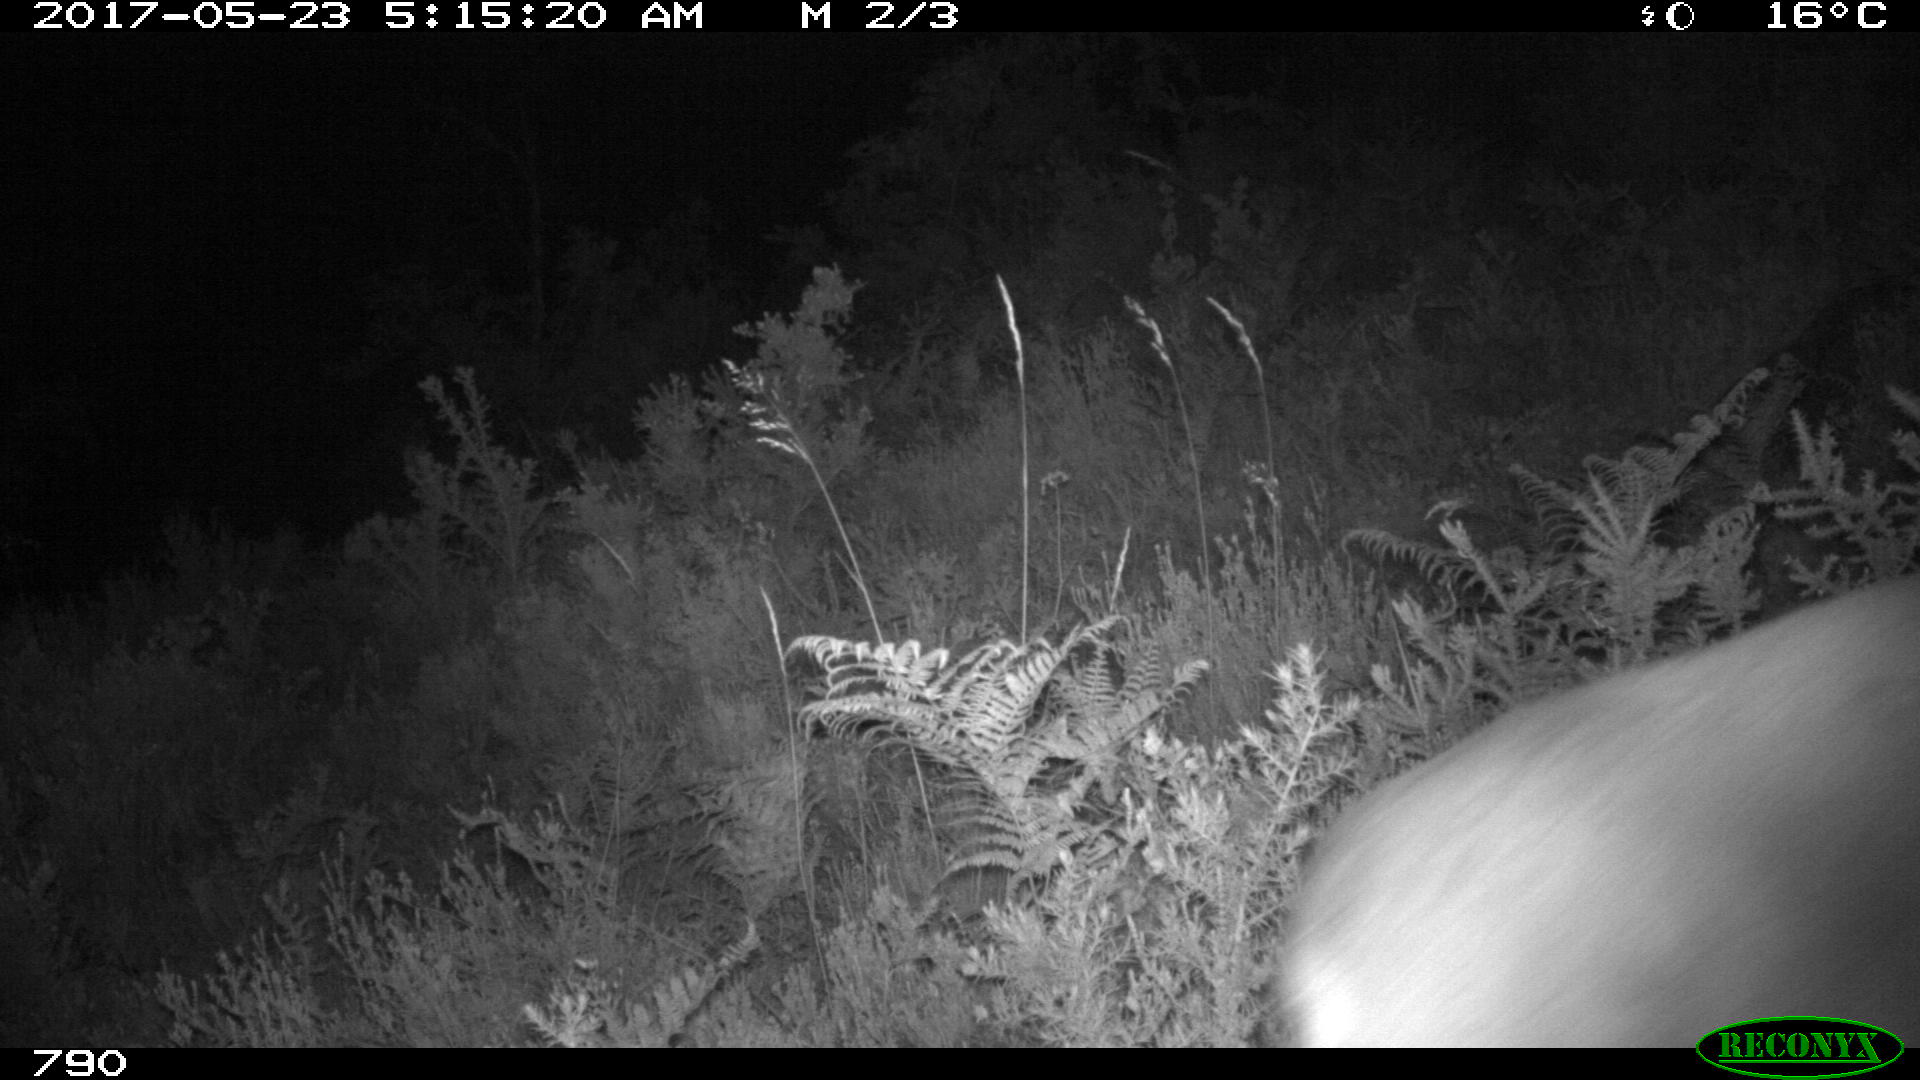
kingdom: Animalia
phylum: Chordata
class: Mammalia
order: Artiodactyla
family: Cervidae
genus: Capreolus
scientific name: Capreolus capreolus
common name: Western roe deer
